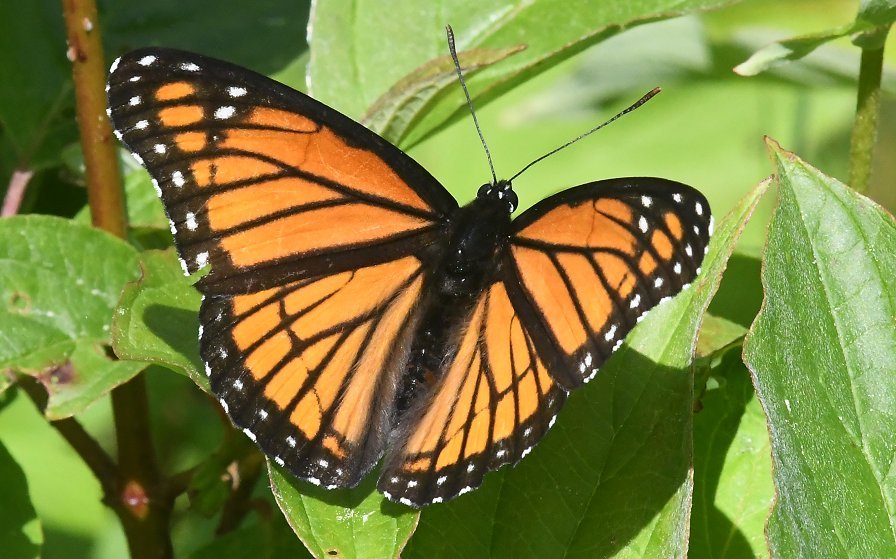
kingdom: Animalia
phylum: Arthropoda
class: Insecta
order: Lepidoptera
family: Nymphalidae
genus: Limenitis
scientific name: Limenitis archippus
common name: Viceroy
